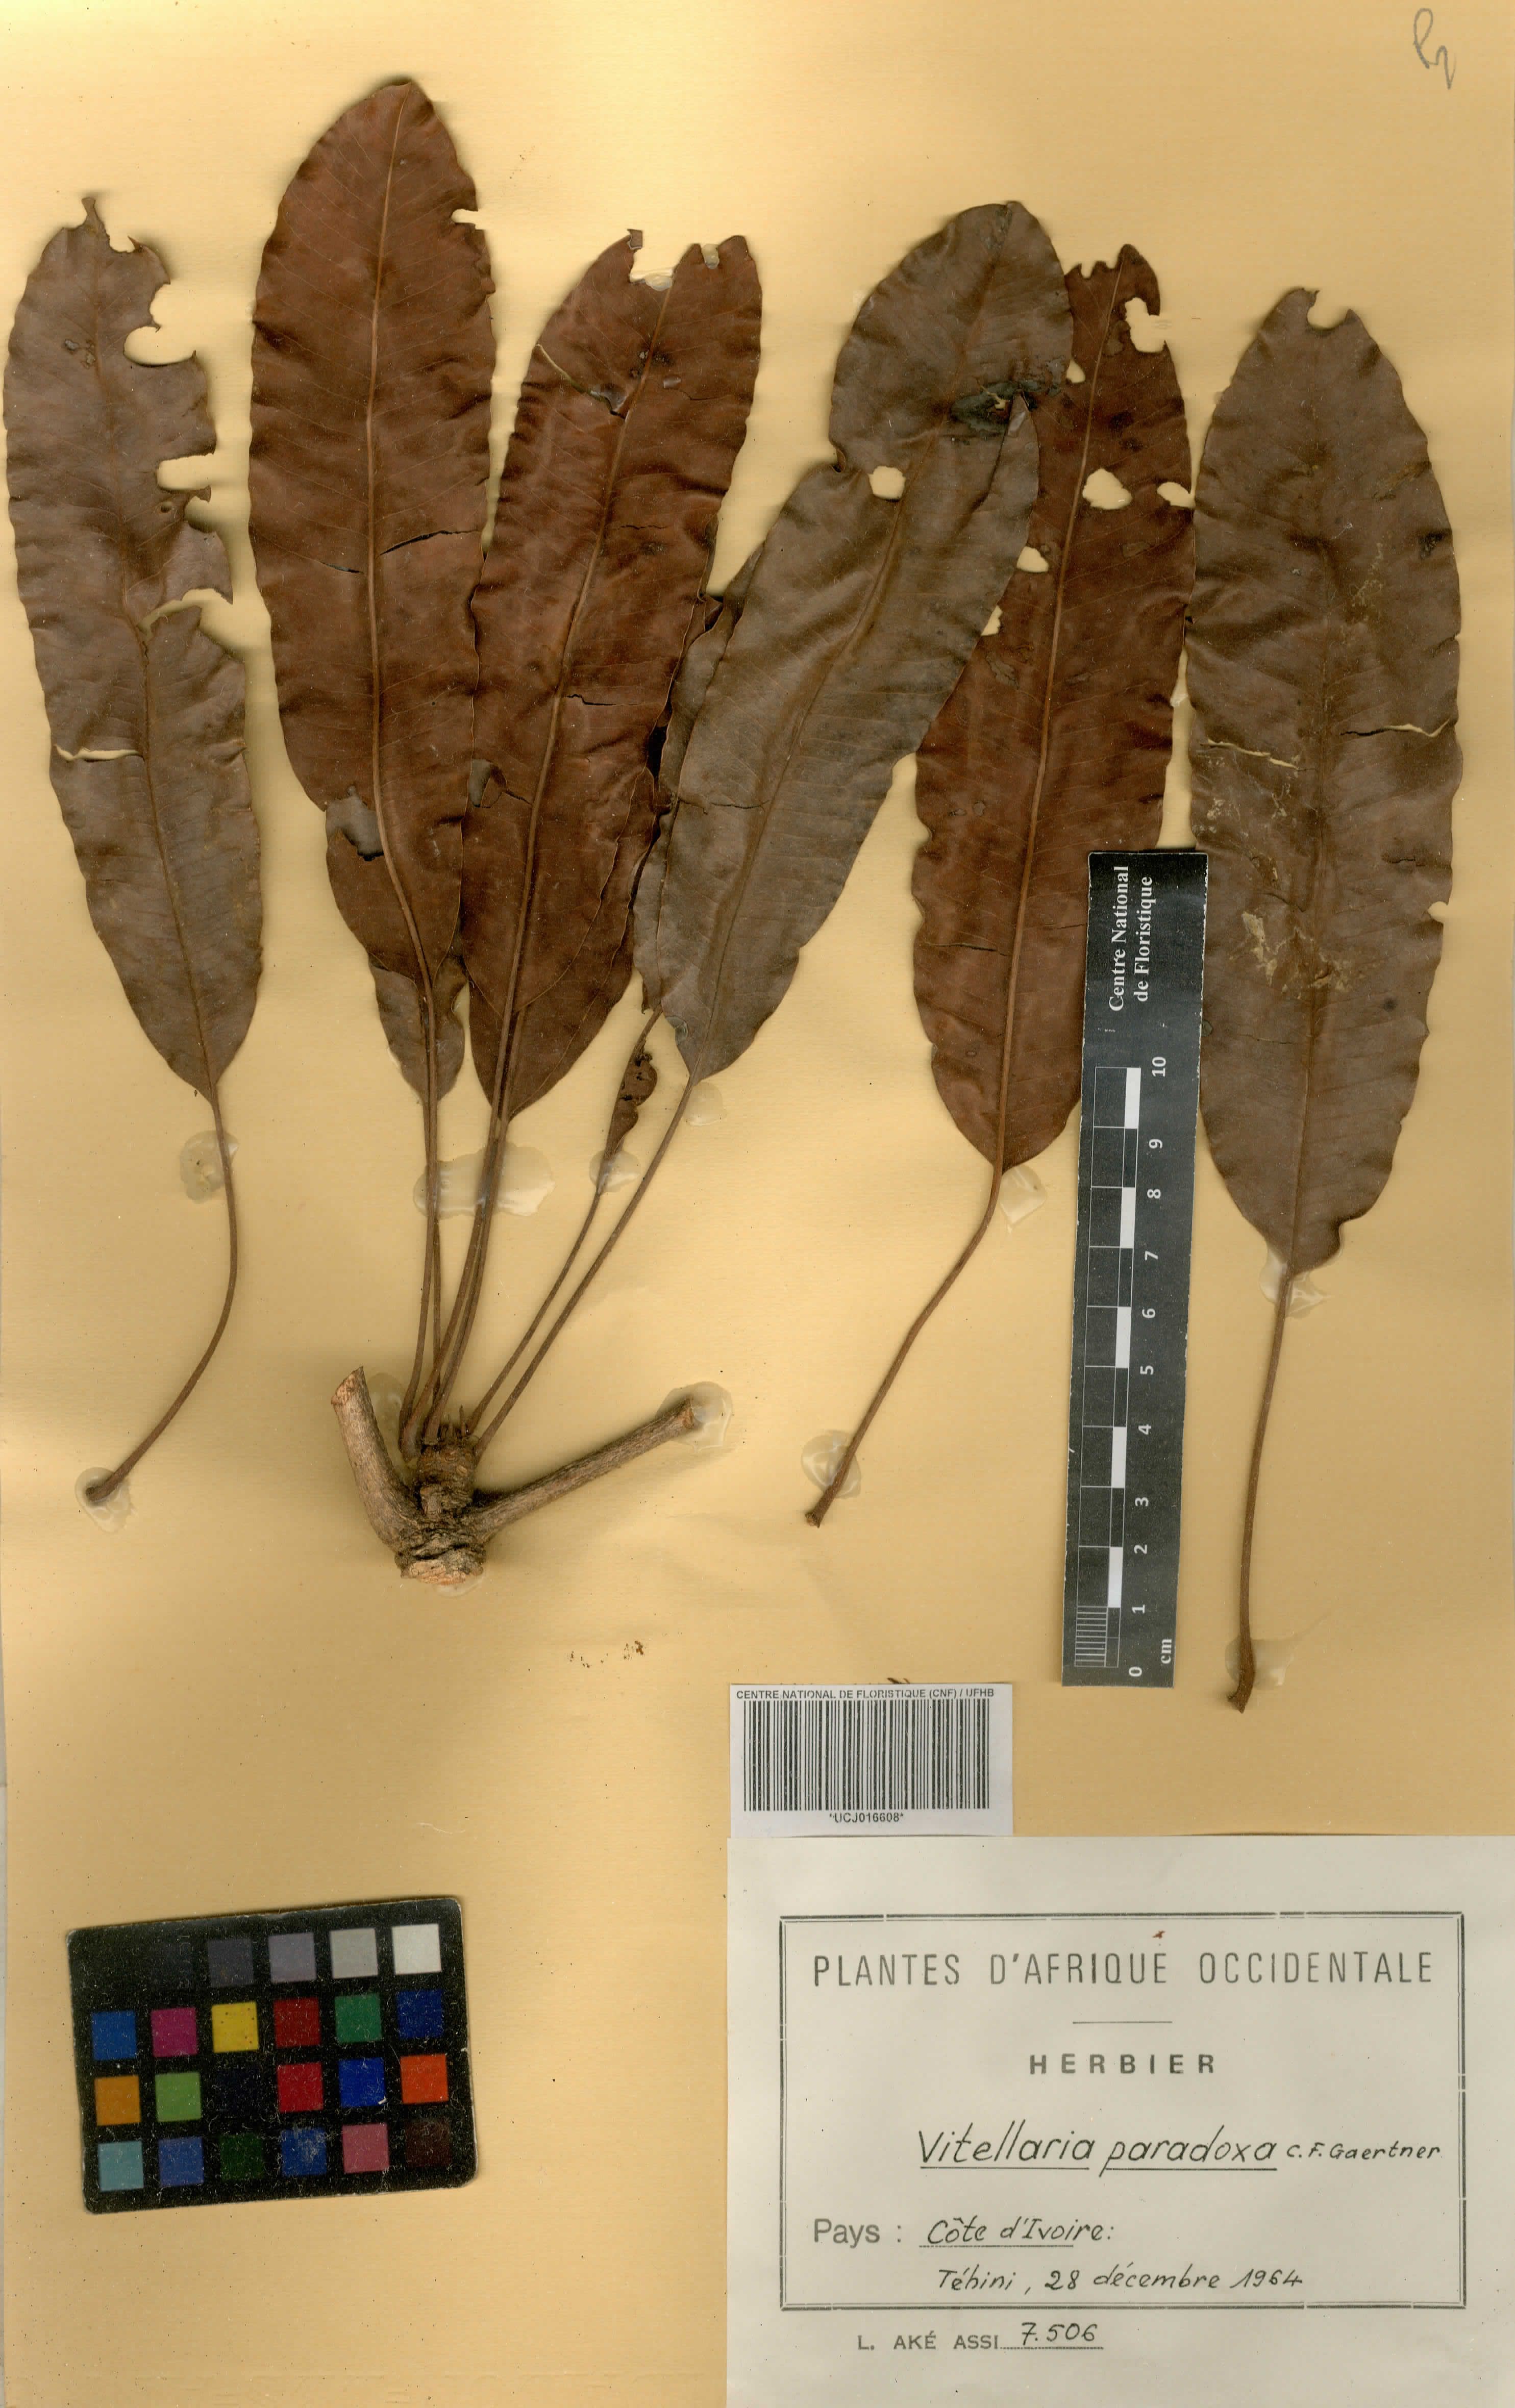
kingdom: Plantae
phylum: Tracheophyta
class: Magnoliopsida
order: Ericales
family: Sapotaceae
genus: Vitellaria
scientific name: Vitellaria paradoxa
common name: Shea butter tree
